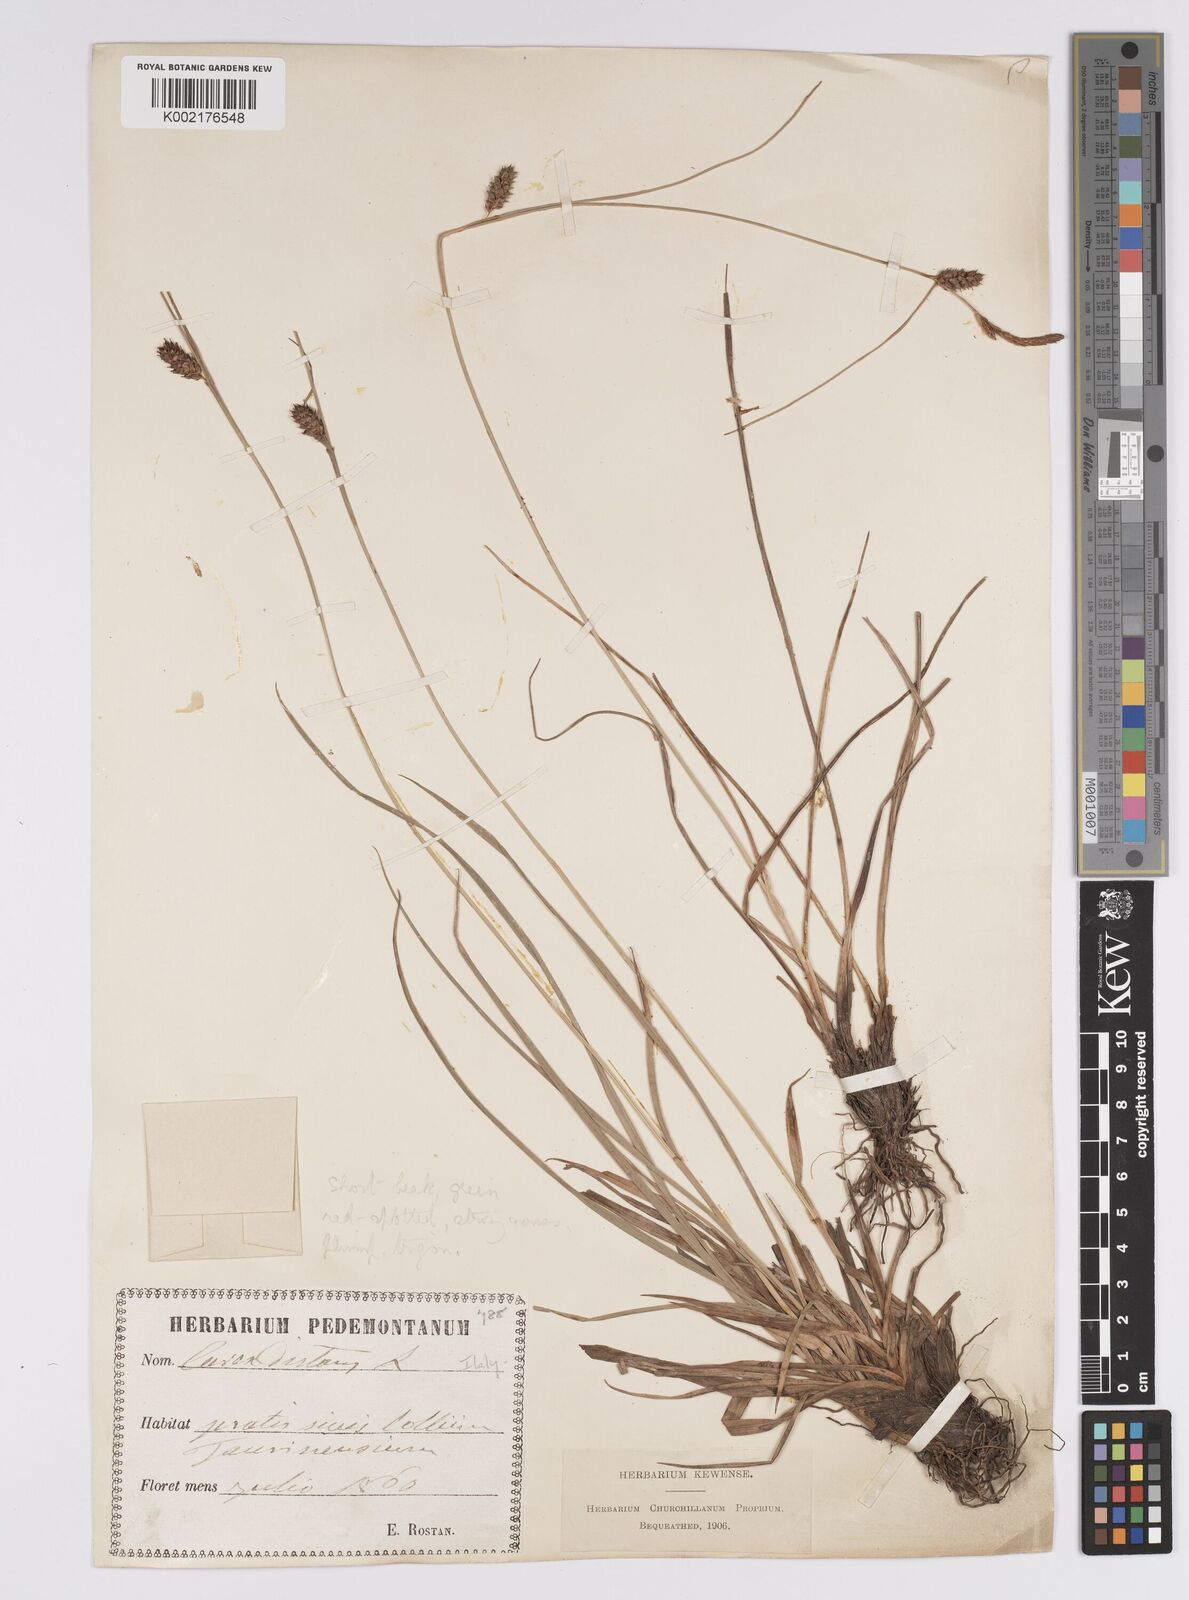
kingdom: Plantae
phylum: Tracheophyta
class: Liliopsida
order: Poales
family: Cyperaceae
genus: Carex
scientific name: Carex distans
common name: Distant sedge
